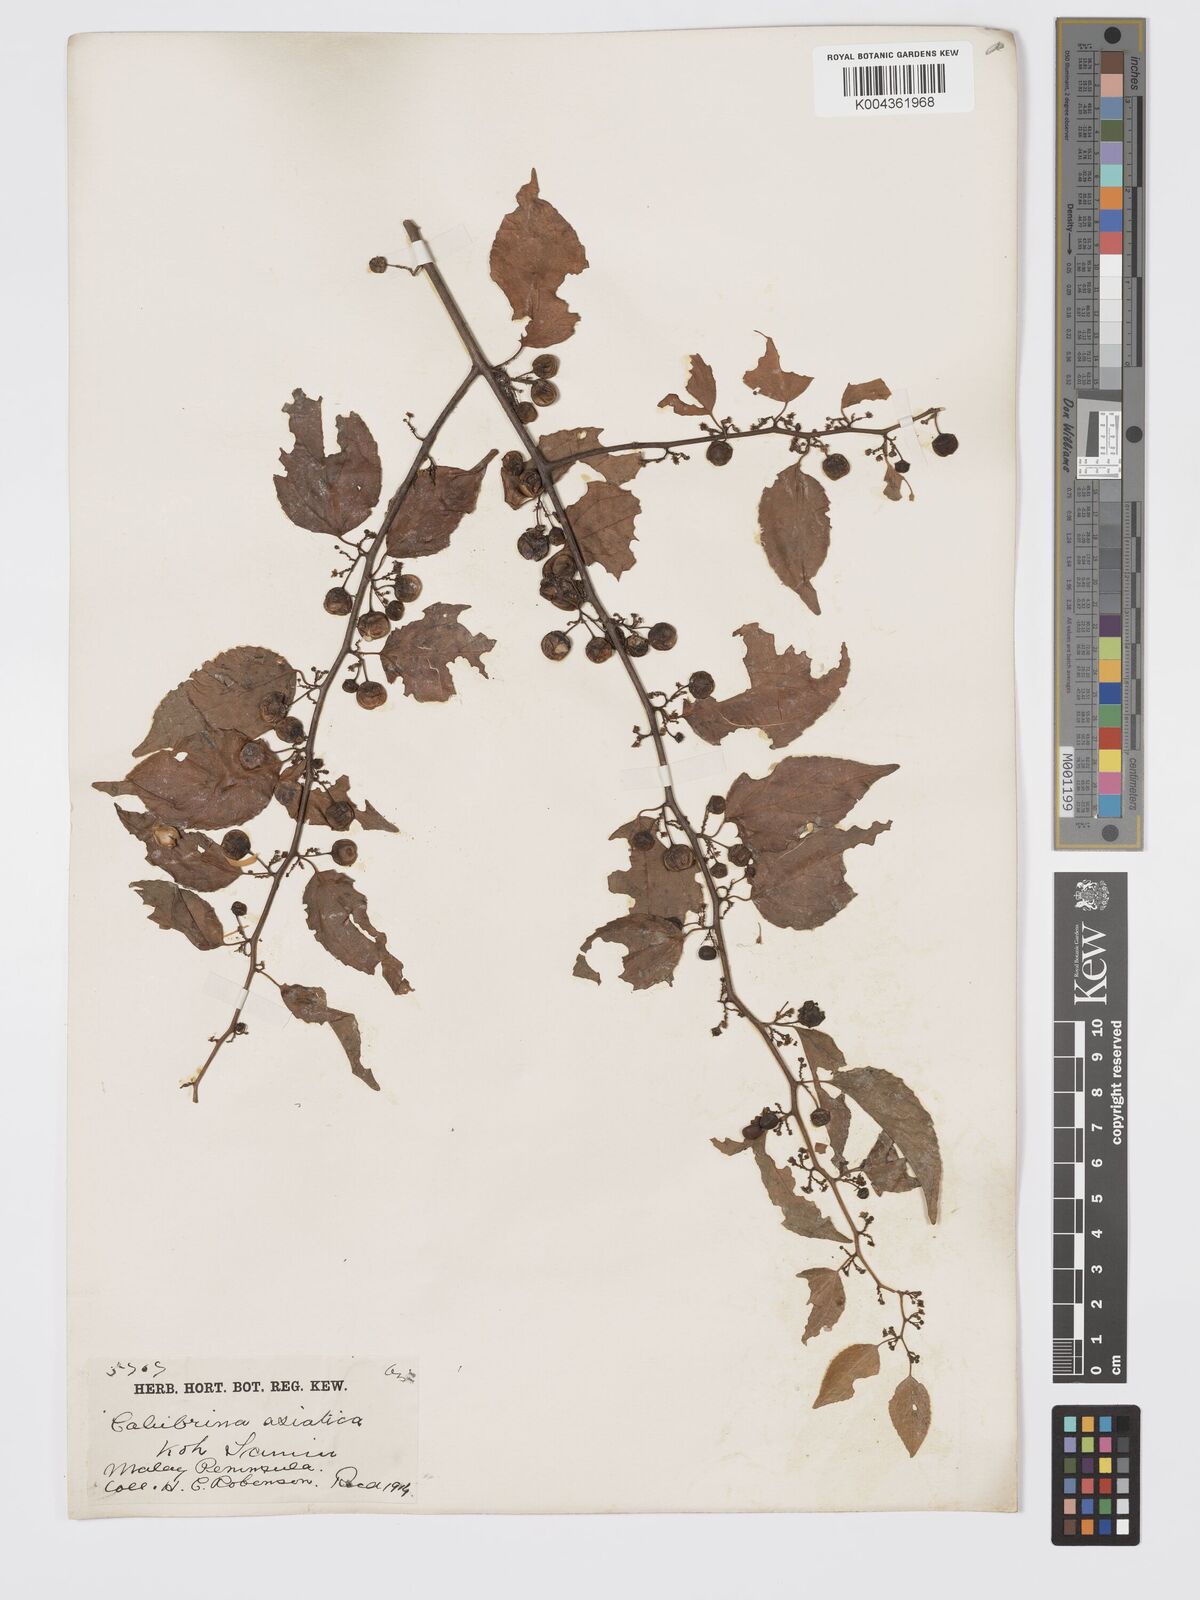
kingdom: Plantae
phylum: Tracheophyta
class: Magnoliopsida
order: Rosales
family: Rhamnaceae
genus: Colubrina
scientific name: Colubrina asiatica
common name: Asian nakedwood
